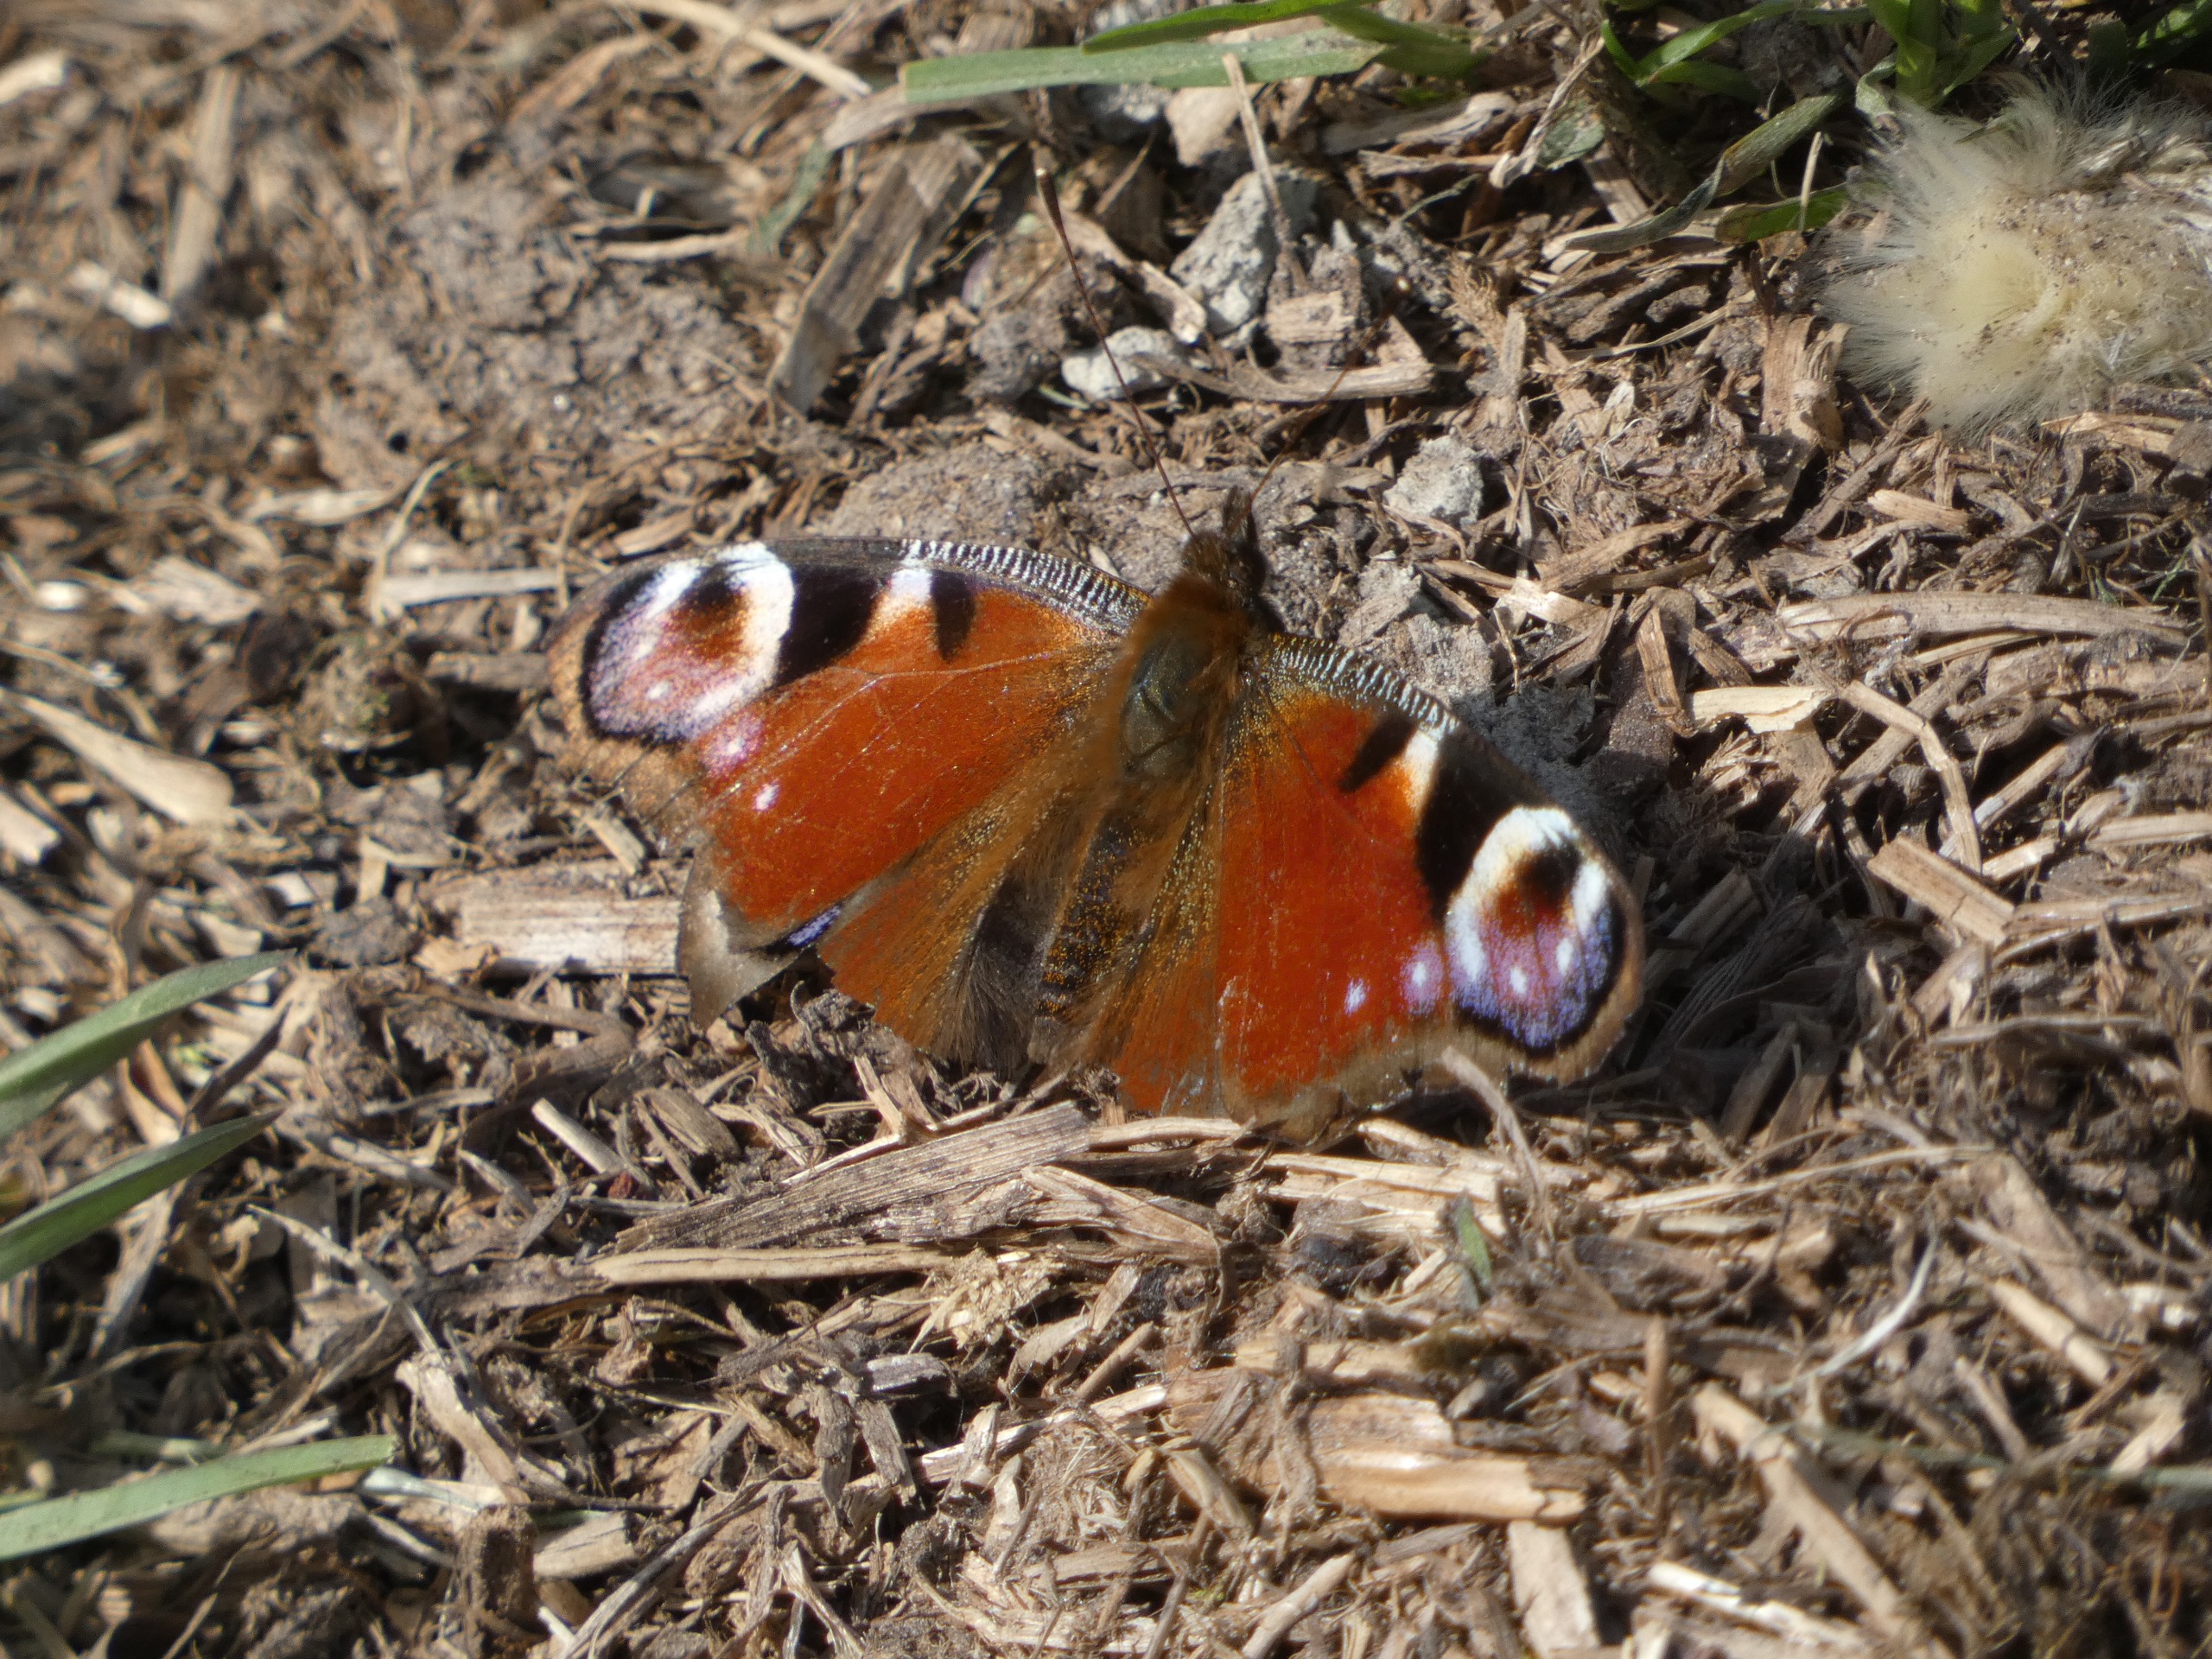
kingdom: Animalia
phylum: Arthropoda
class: Insecta
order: Lepidoptera
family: Nymphalidae
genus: Aglais
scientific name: Aglais io
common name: Dagpåfugleøje
